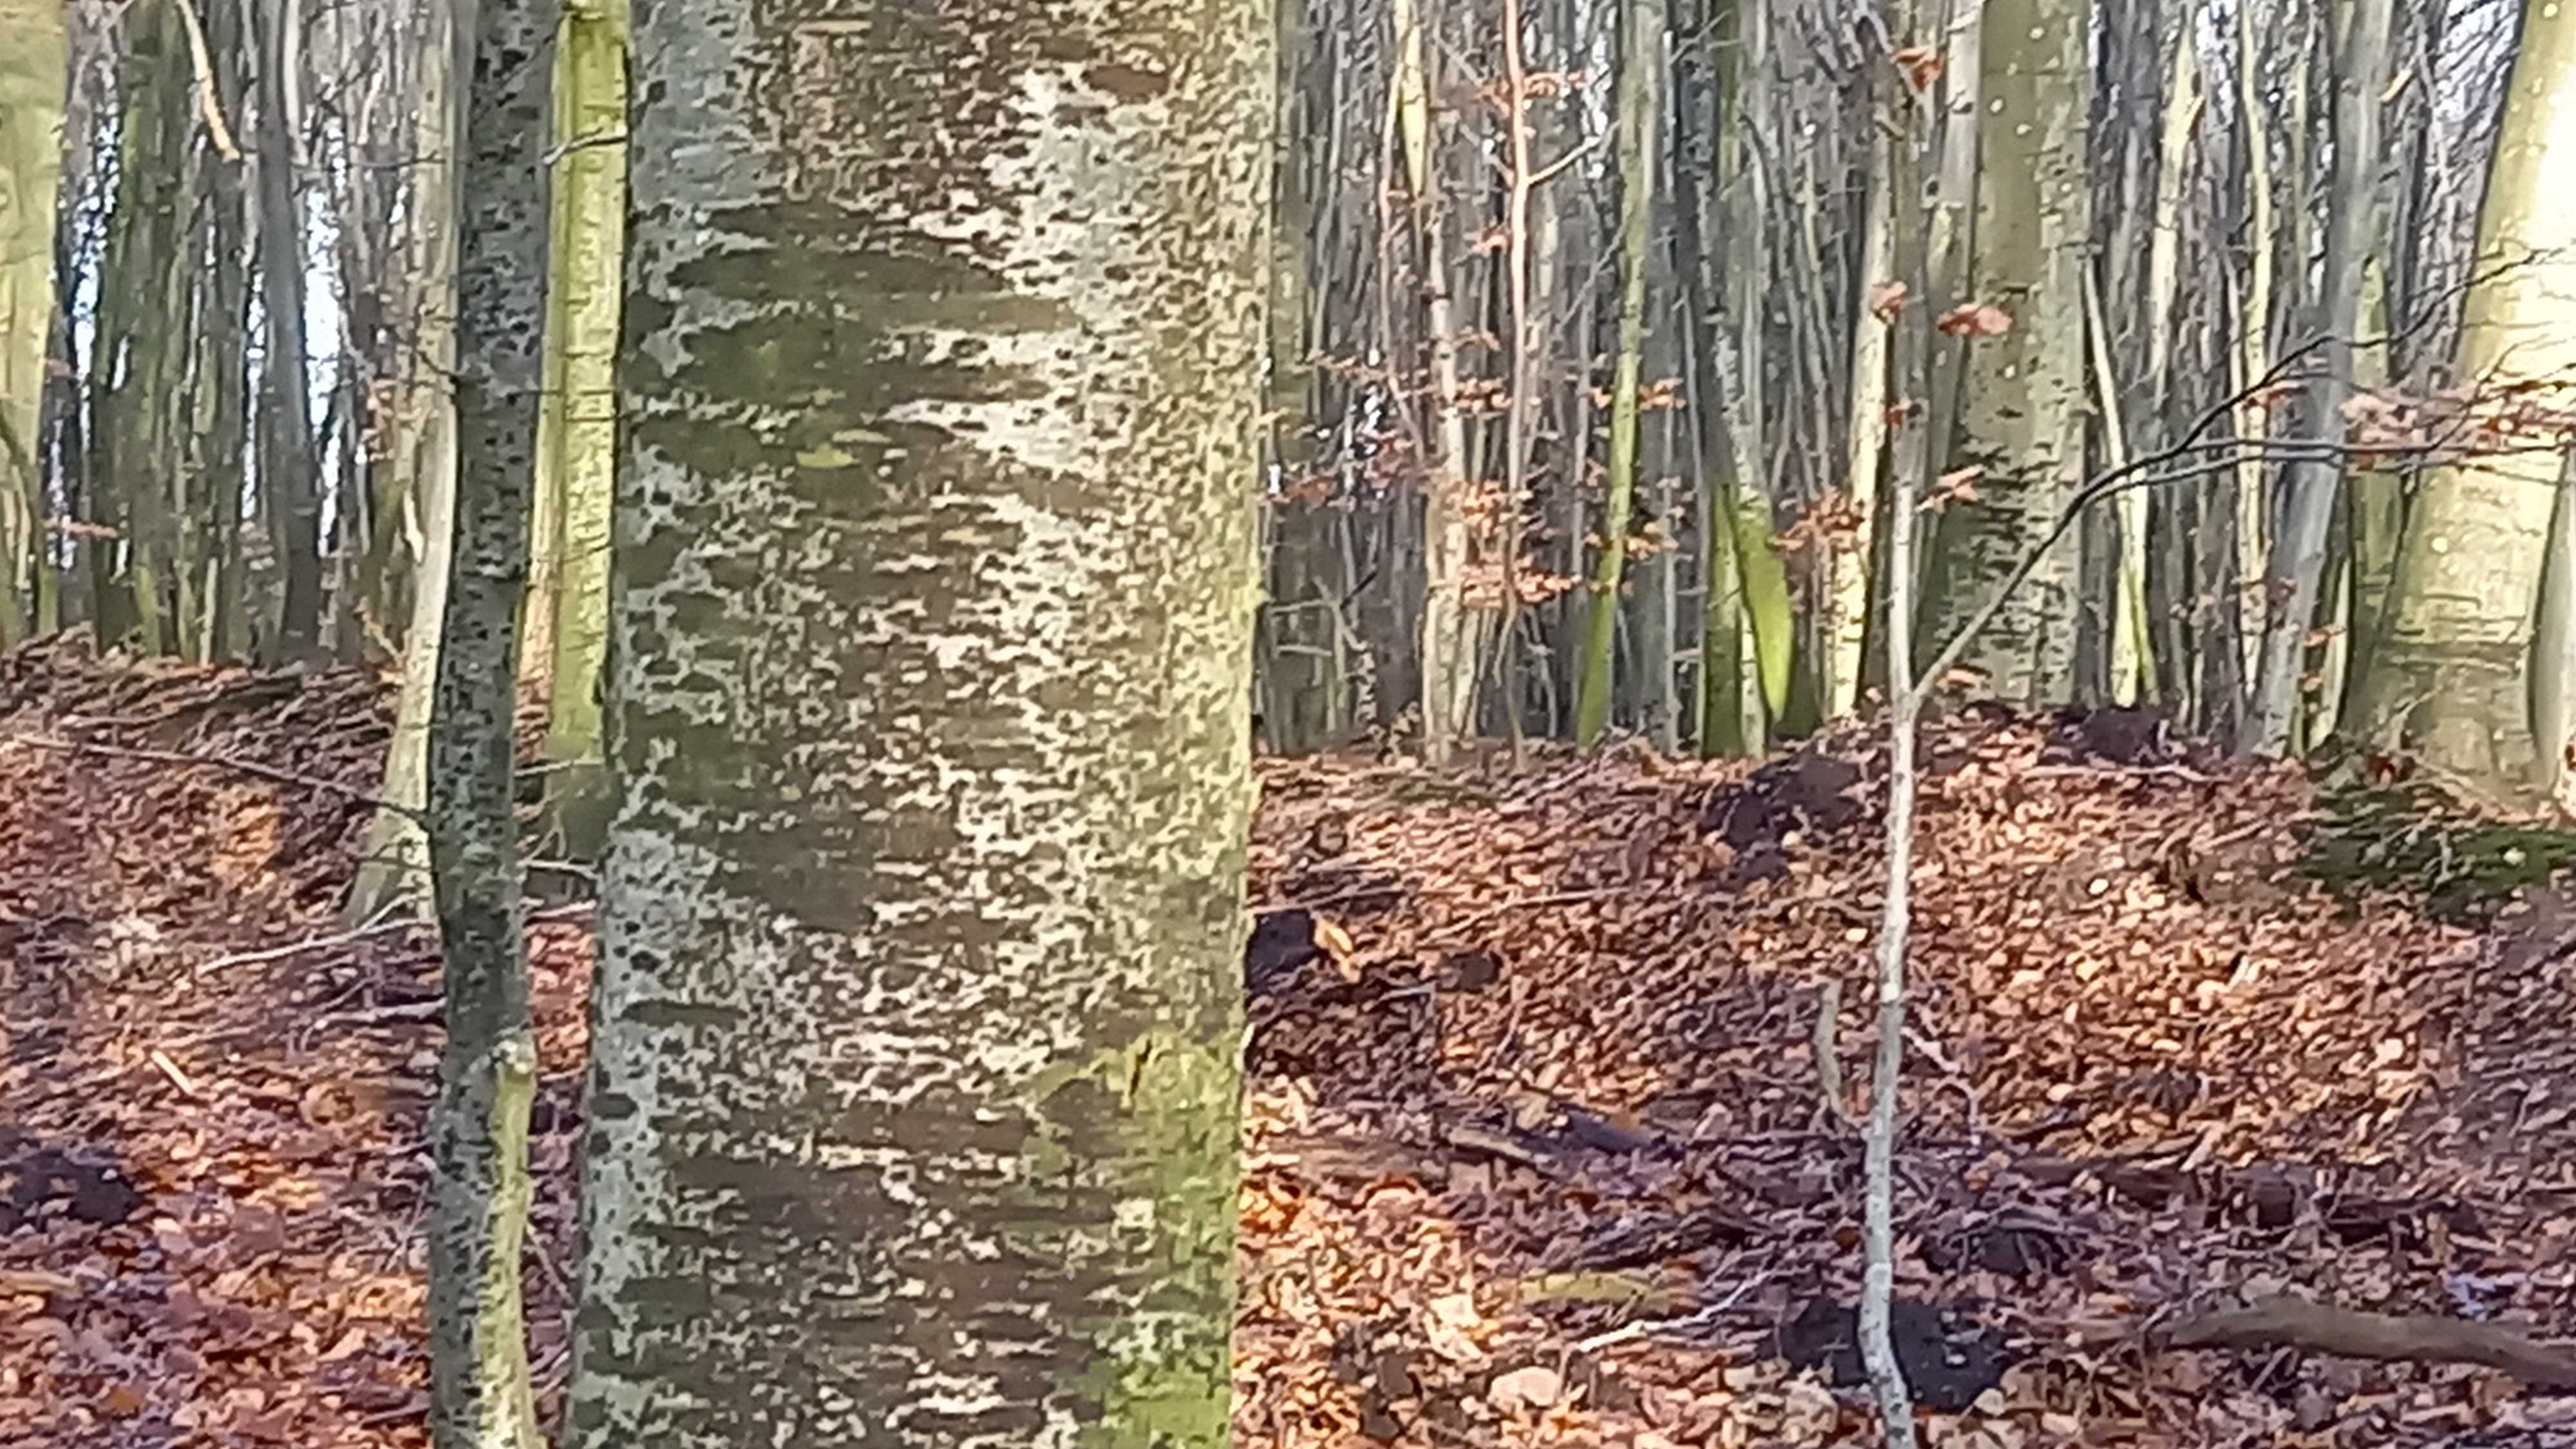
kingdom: Fungi
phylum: Ascomycota
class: Leotiomycetes
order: Rhytismatales
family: Ascodichaenaceae
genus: Ascodichaena
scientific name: Ascodichaena rugosa
